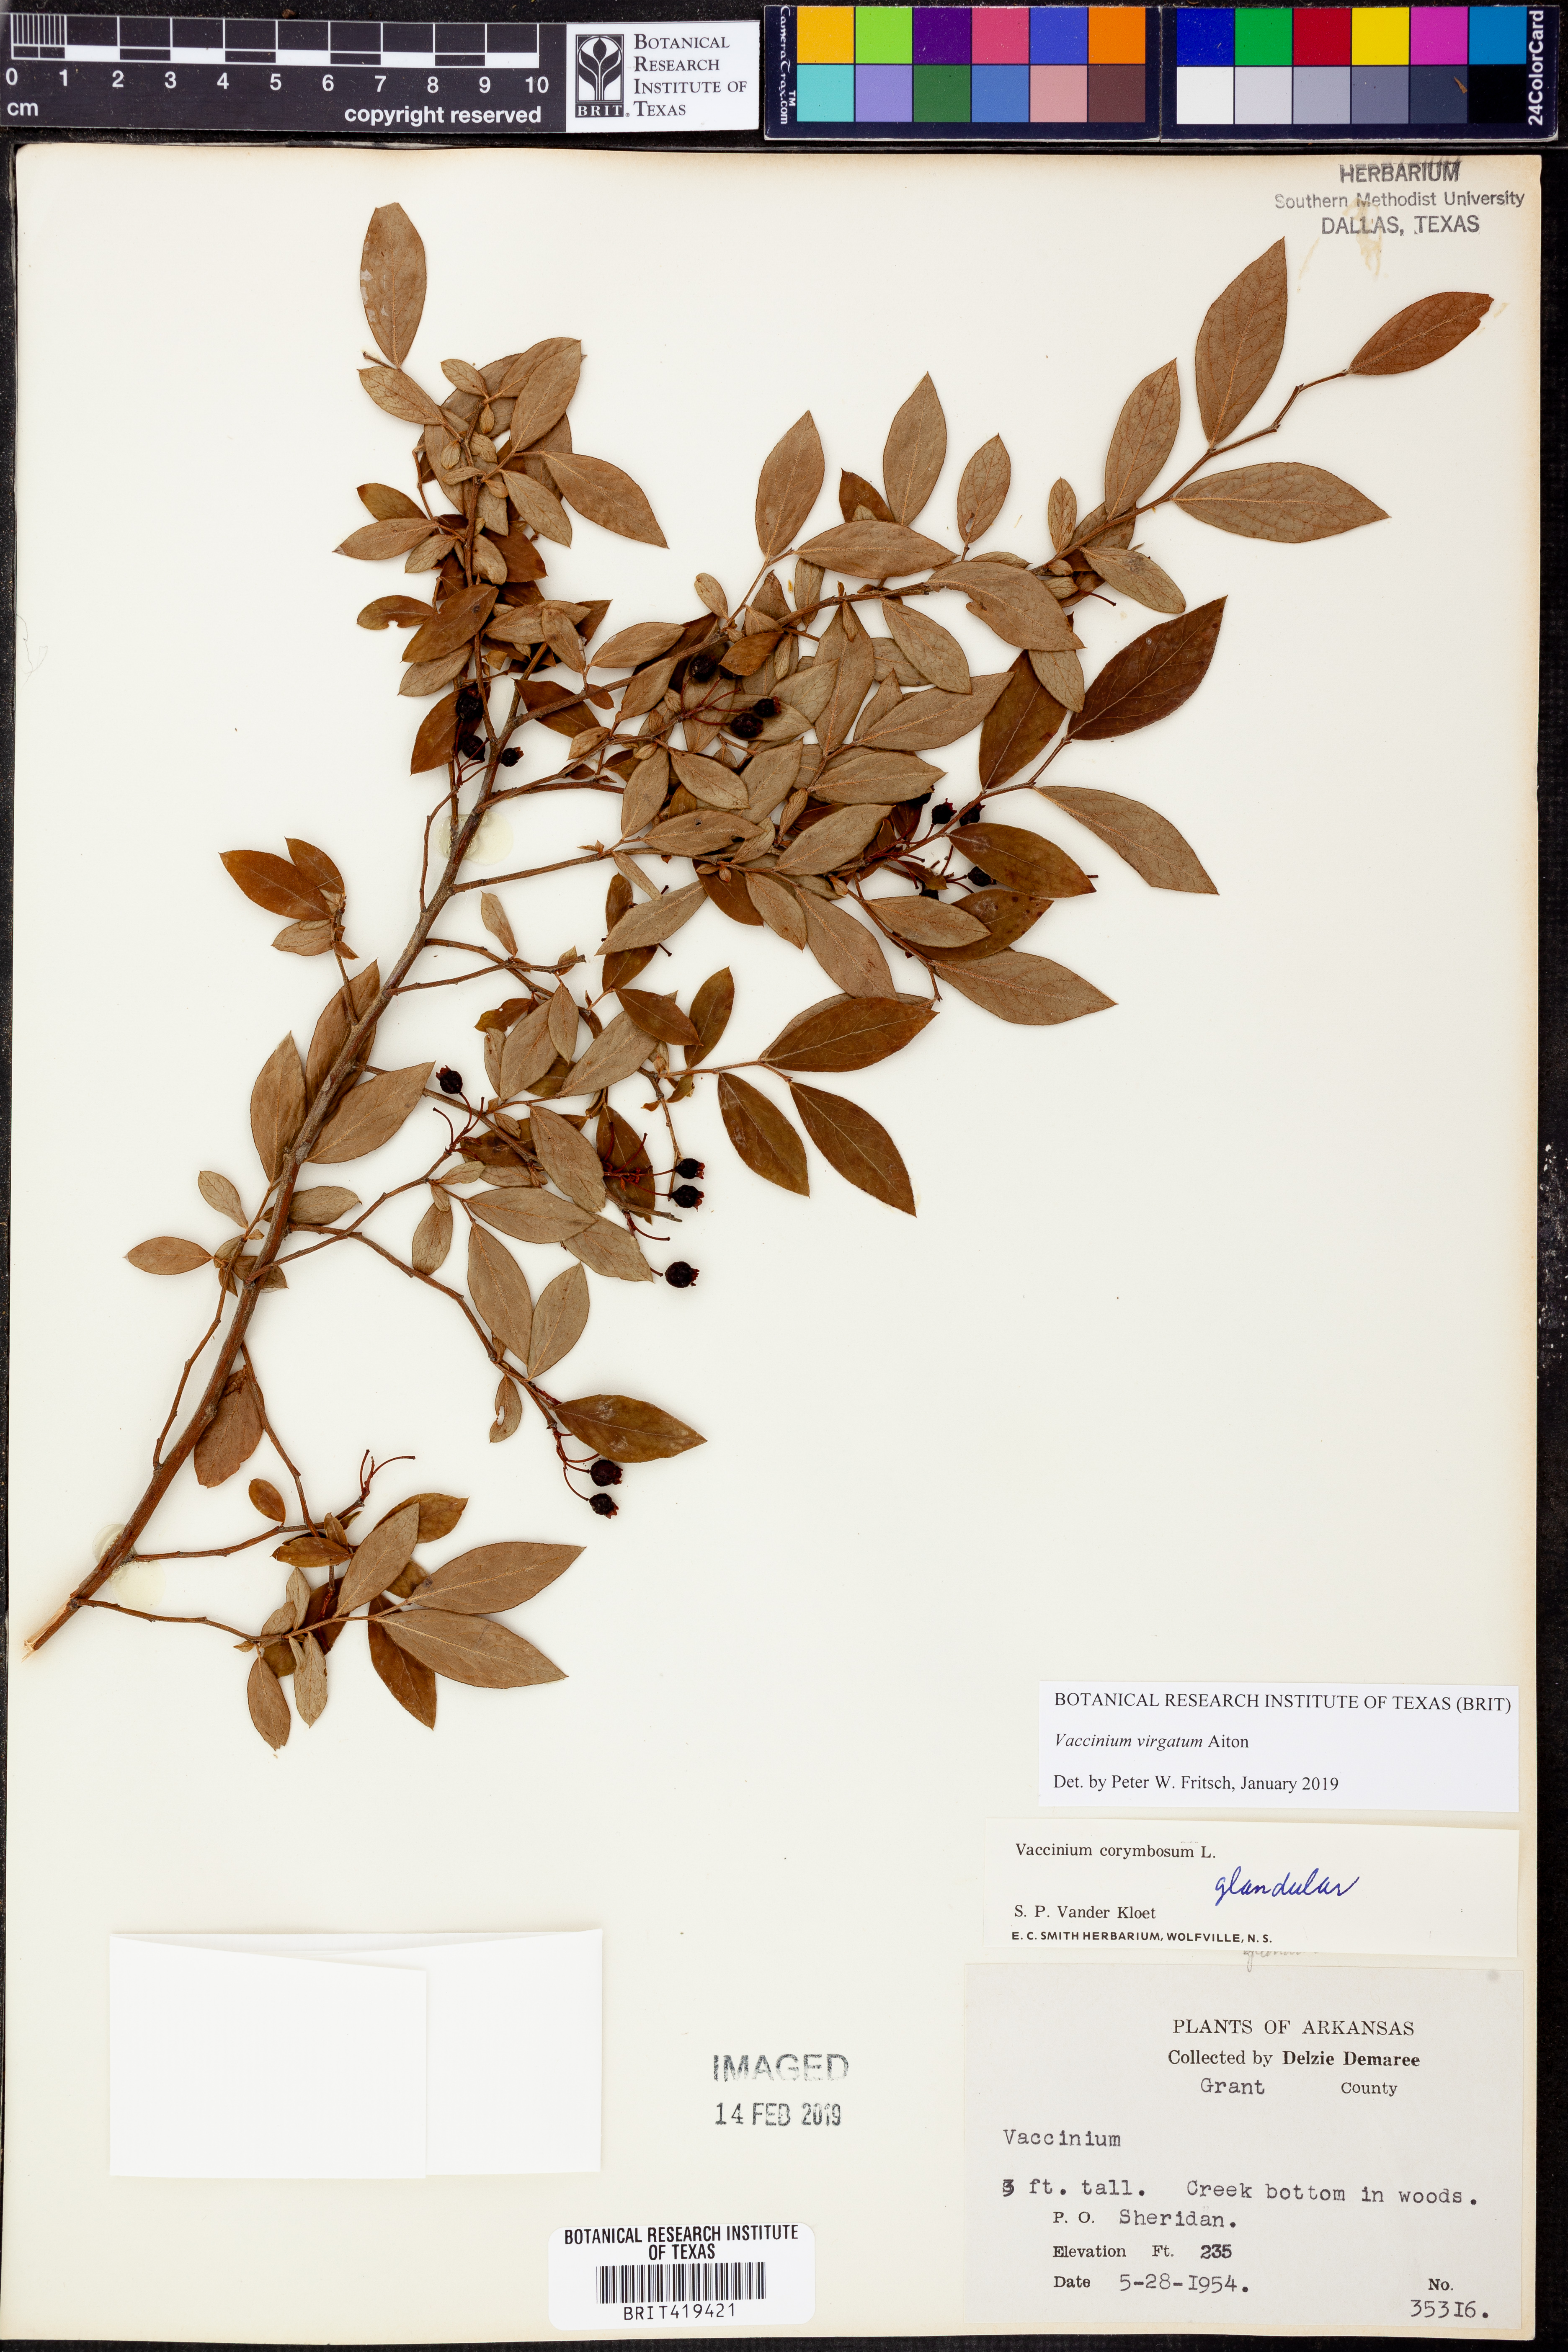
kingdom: Plantae
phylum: Tracheophyta
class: Magnoliopsida
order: Ericales
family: Ericaceae
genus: Vaccinium
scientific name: Vaccinium corymbosum
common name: Blueberry
